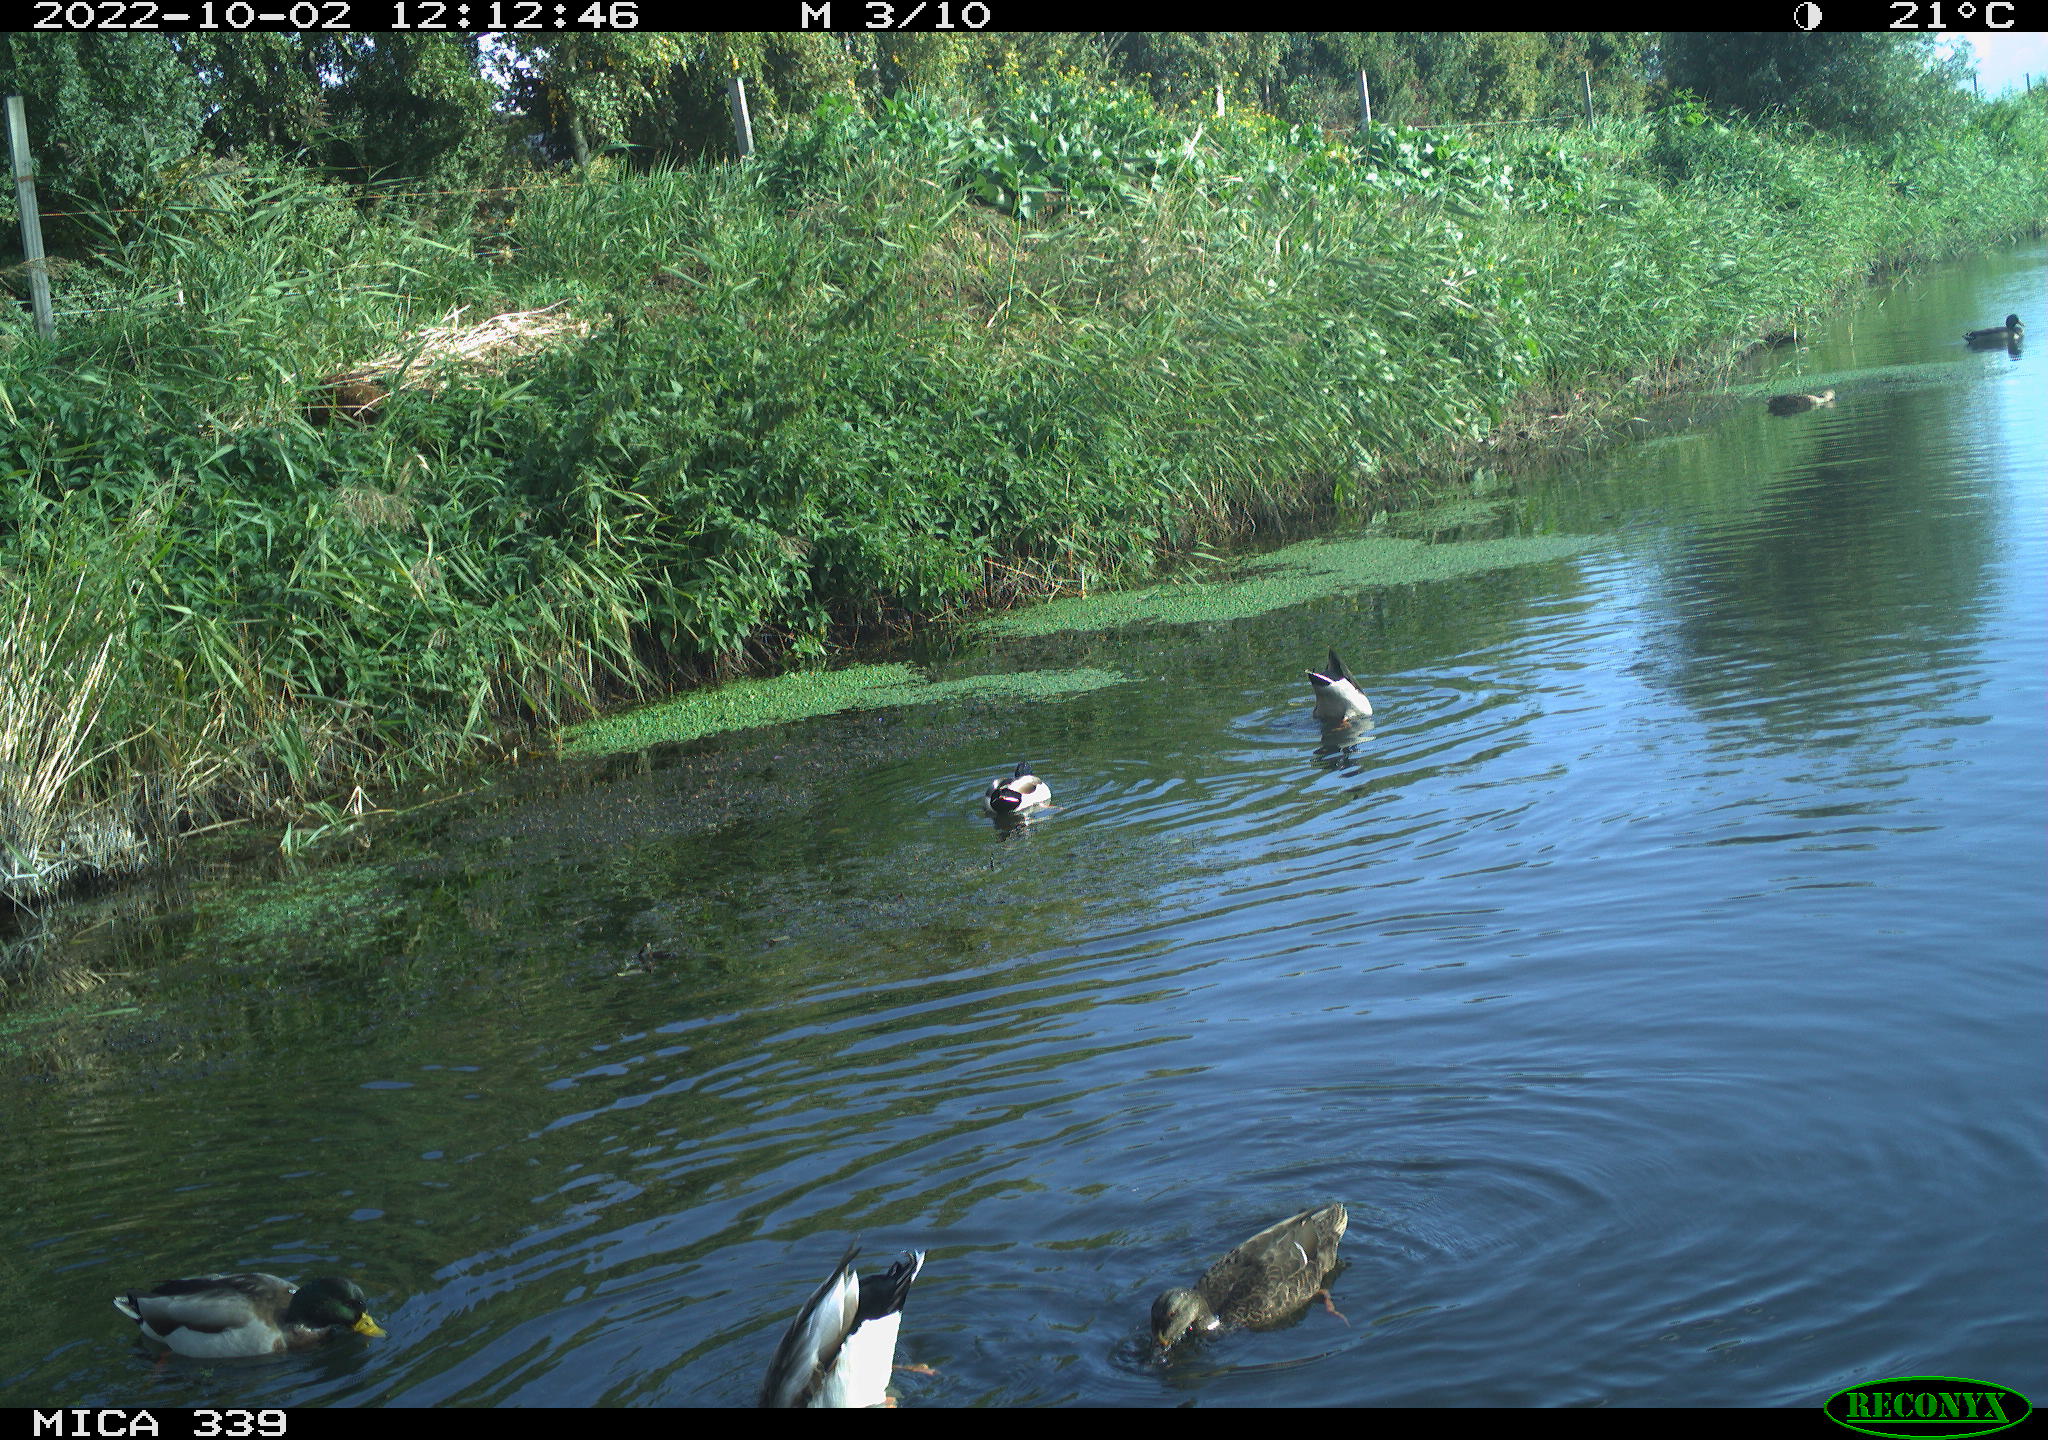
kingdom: Animalia
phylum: Chordata
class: Aves
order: Anseriformes
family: Anatidae
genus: Anas
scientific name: Anas platyrhynchos
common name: Mallard
